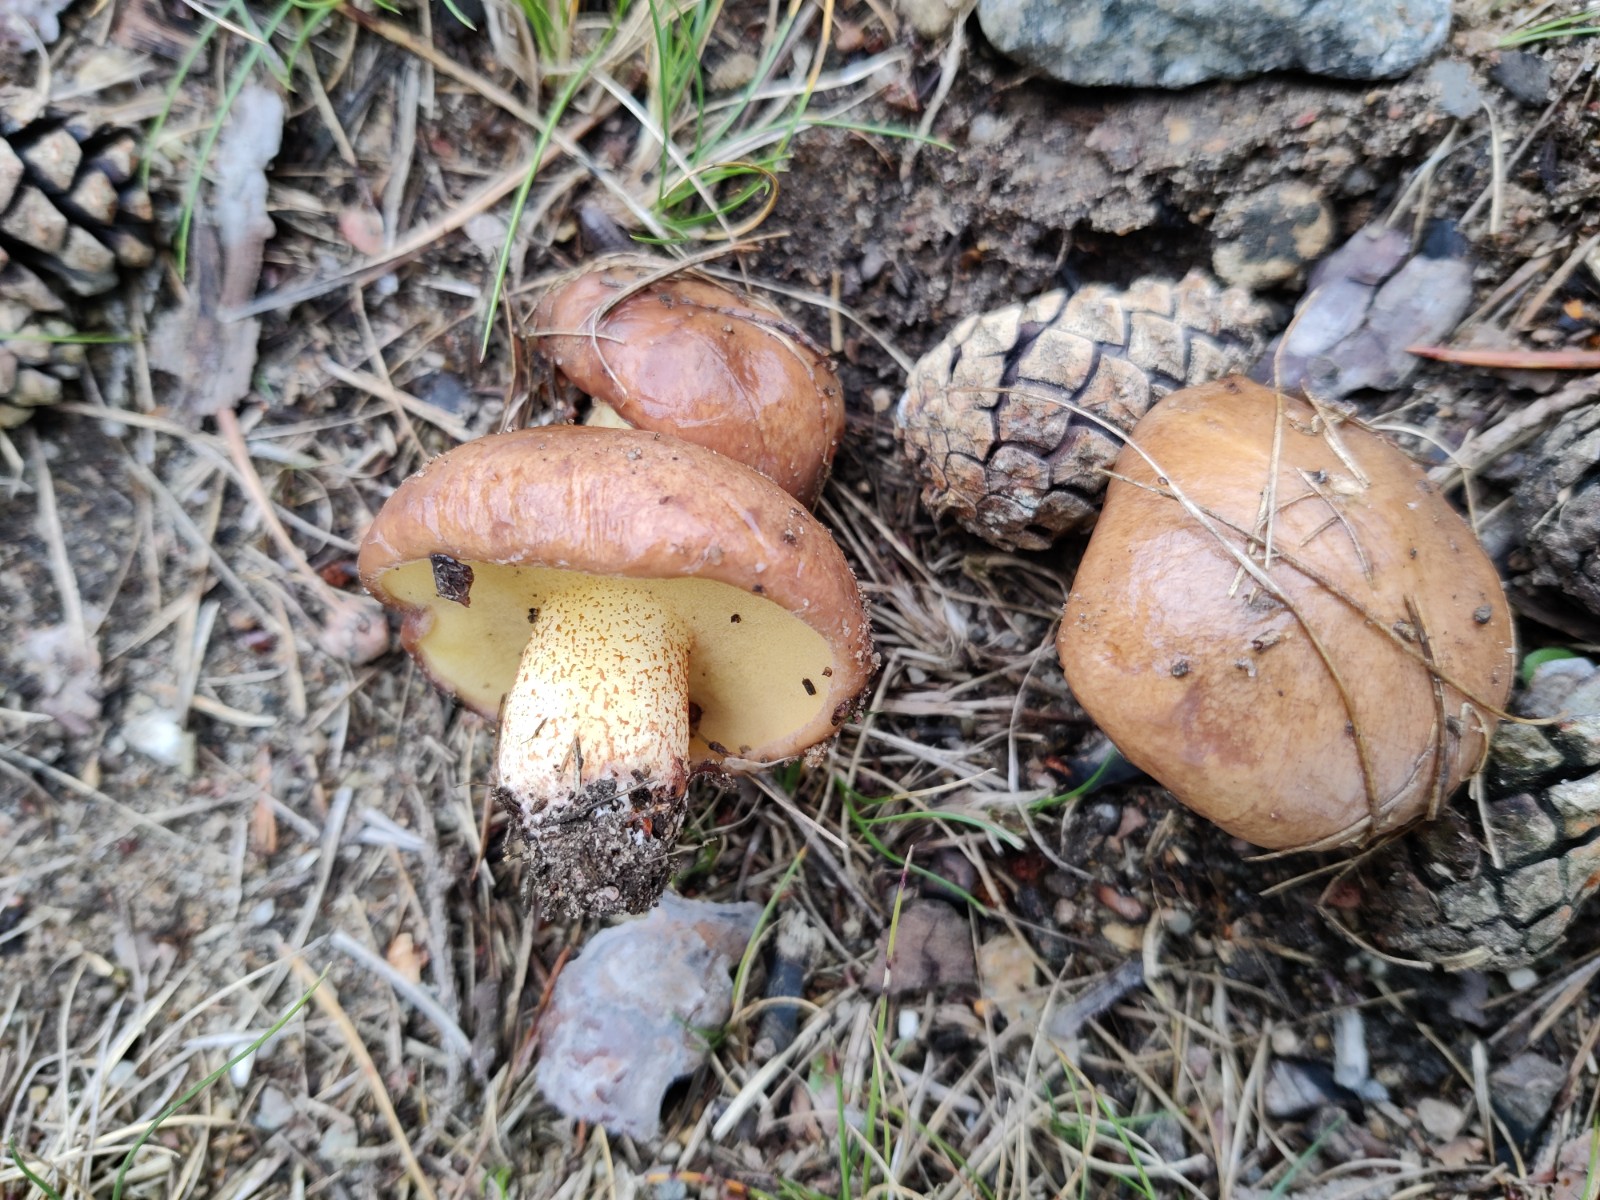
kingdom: Fungi
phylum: Basidiomycota
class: Agaricomycetes
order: Boletales
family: Suillaceae
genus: Suillus
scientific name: Suillus collinitus
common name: rosafodet slimrørhat
